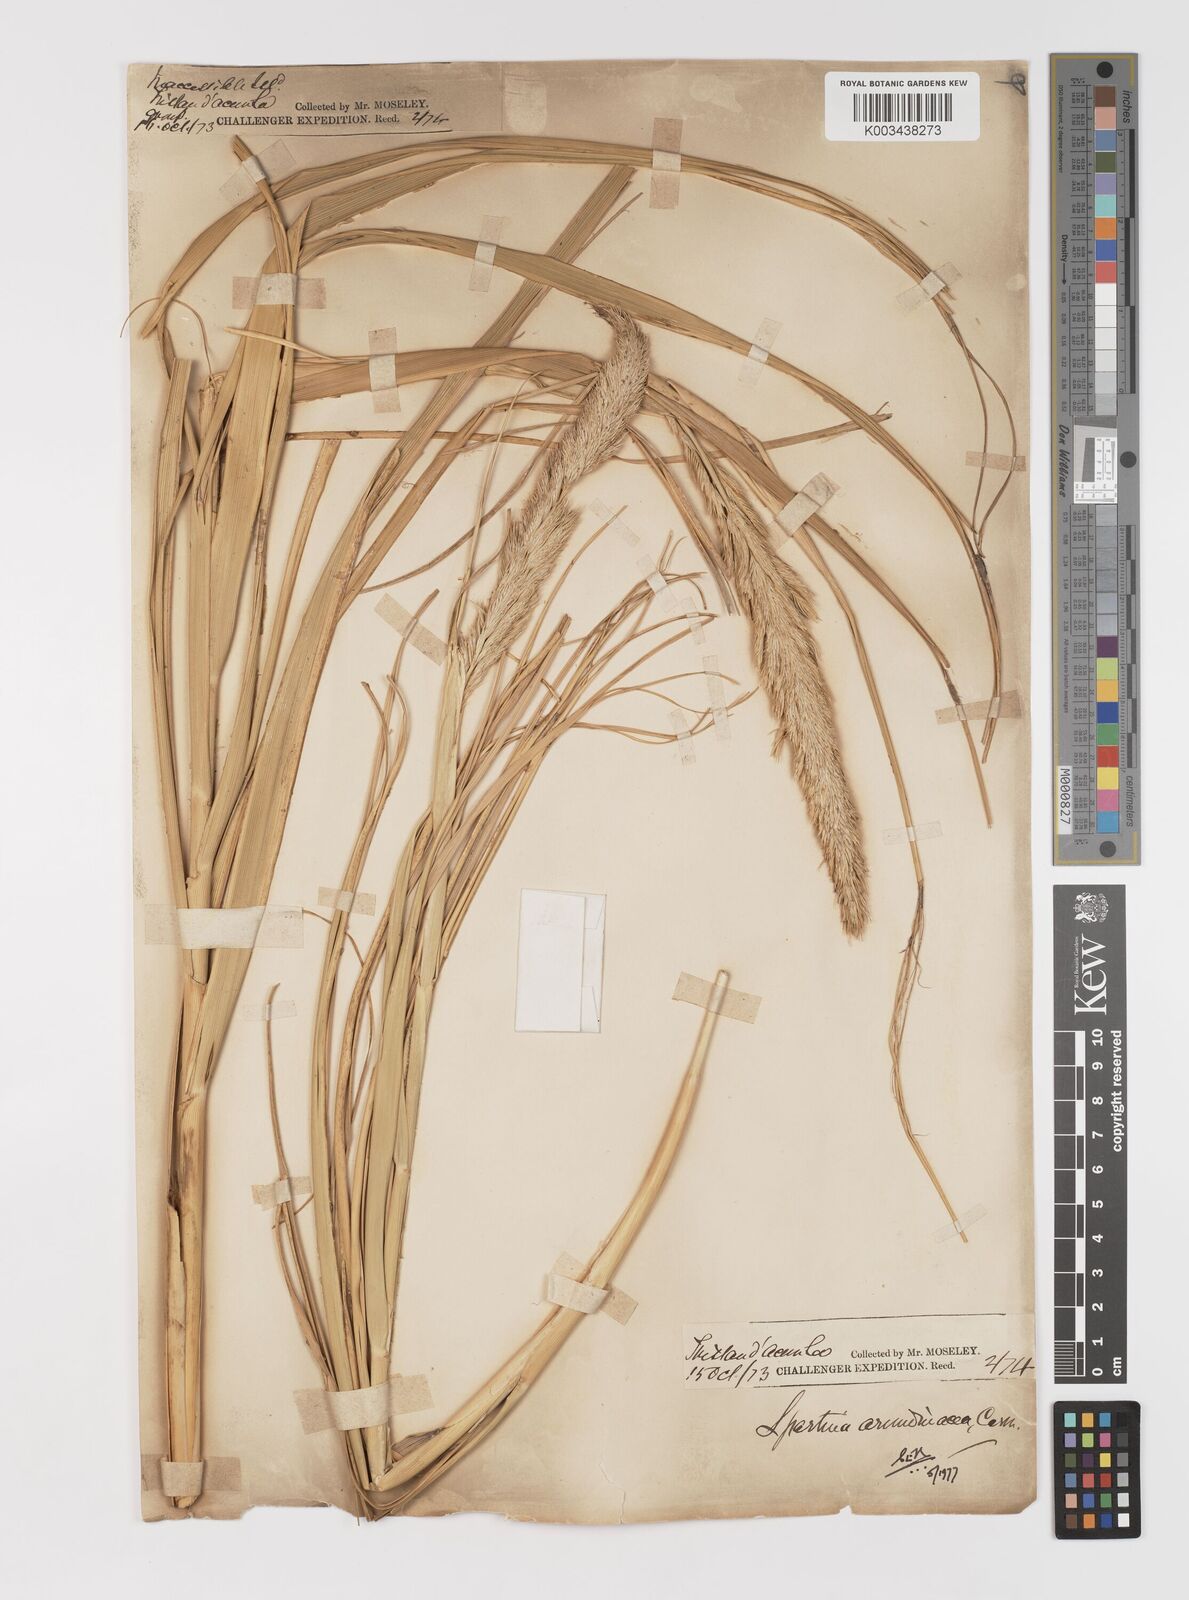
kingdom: Plantae
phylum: Tracheophyta
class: Liliopsida
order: Poales
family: Poaceae
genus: Sporobolus
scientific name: Sporobolus mobberleyanus
